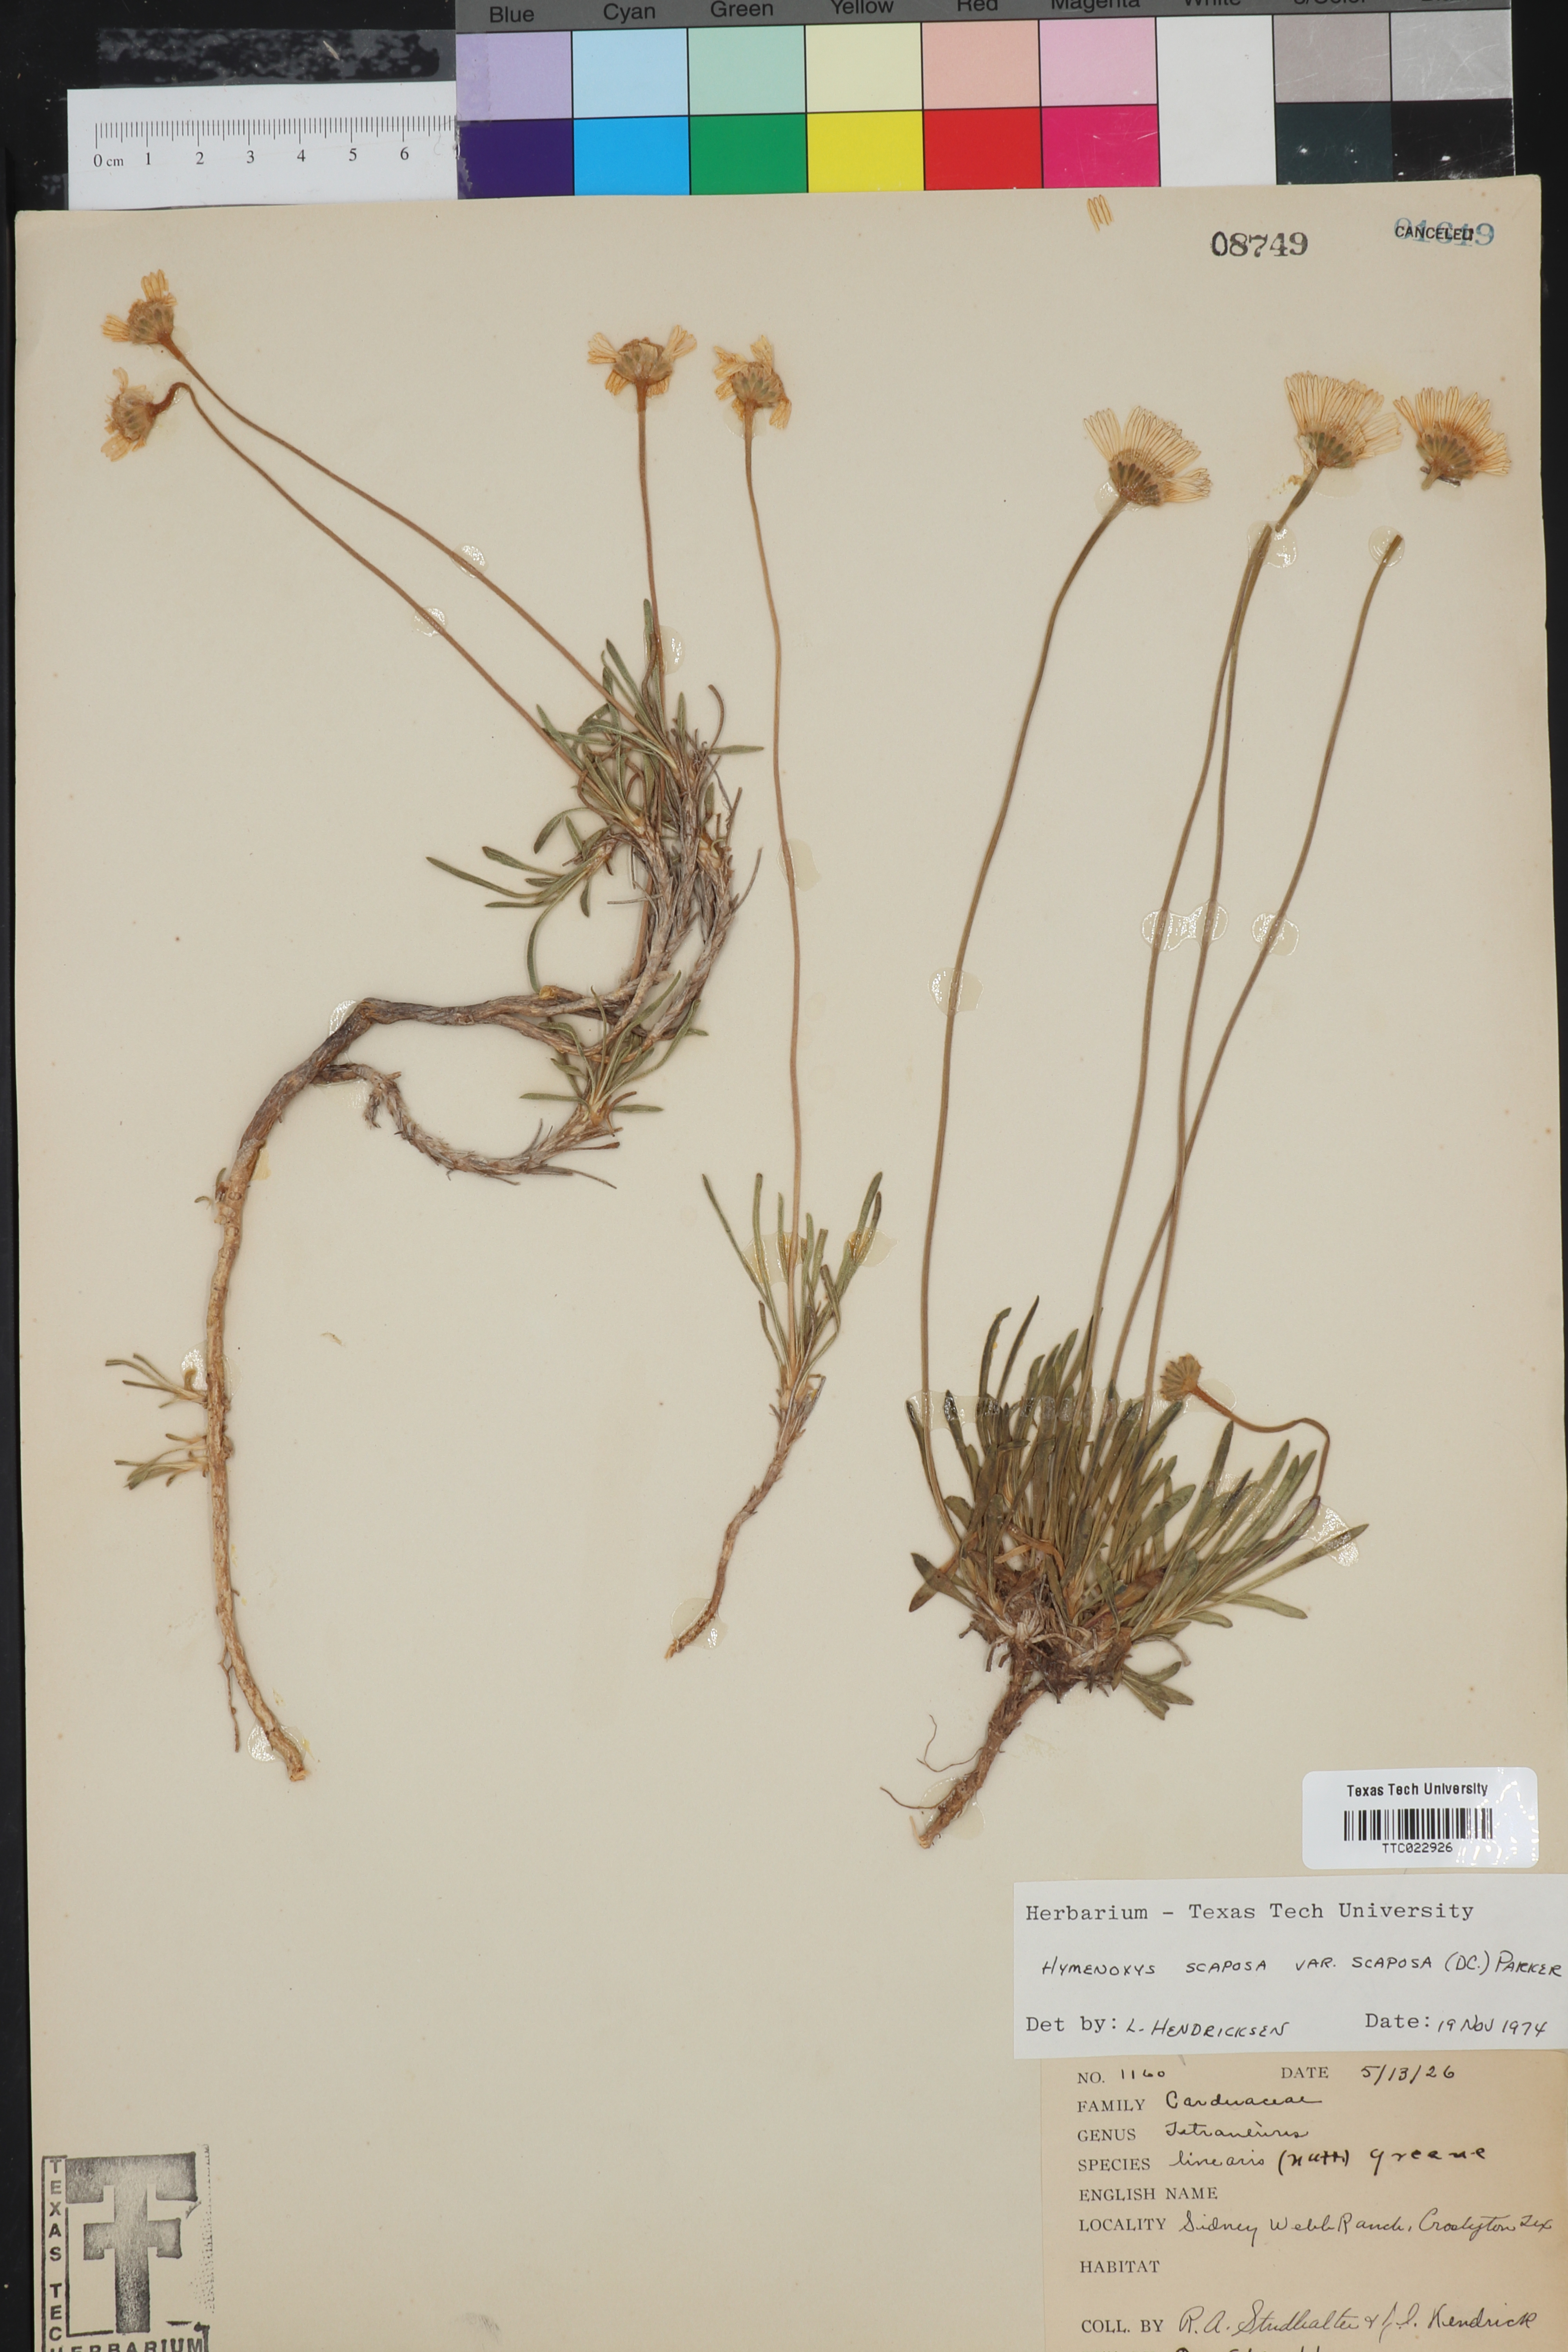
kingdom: Plantae
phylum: Tracheophyta
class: Magnoliopsida
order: Asterales
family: Asteraceae
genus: Tetraneuris
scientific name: Tetraneuris scaposa
